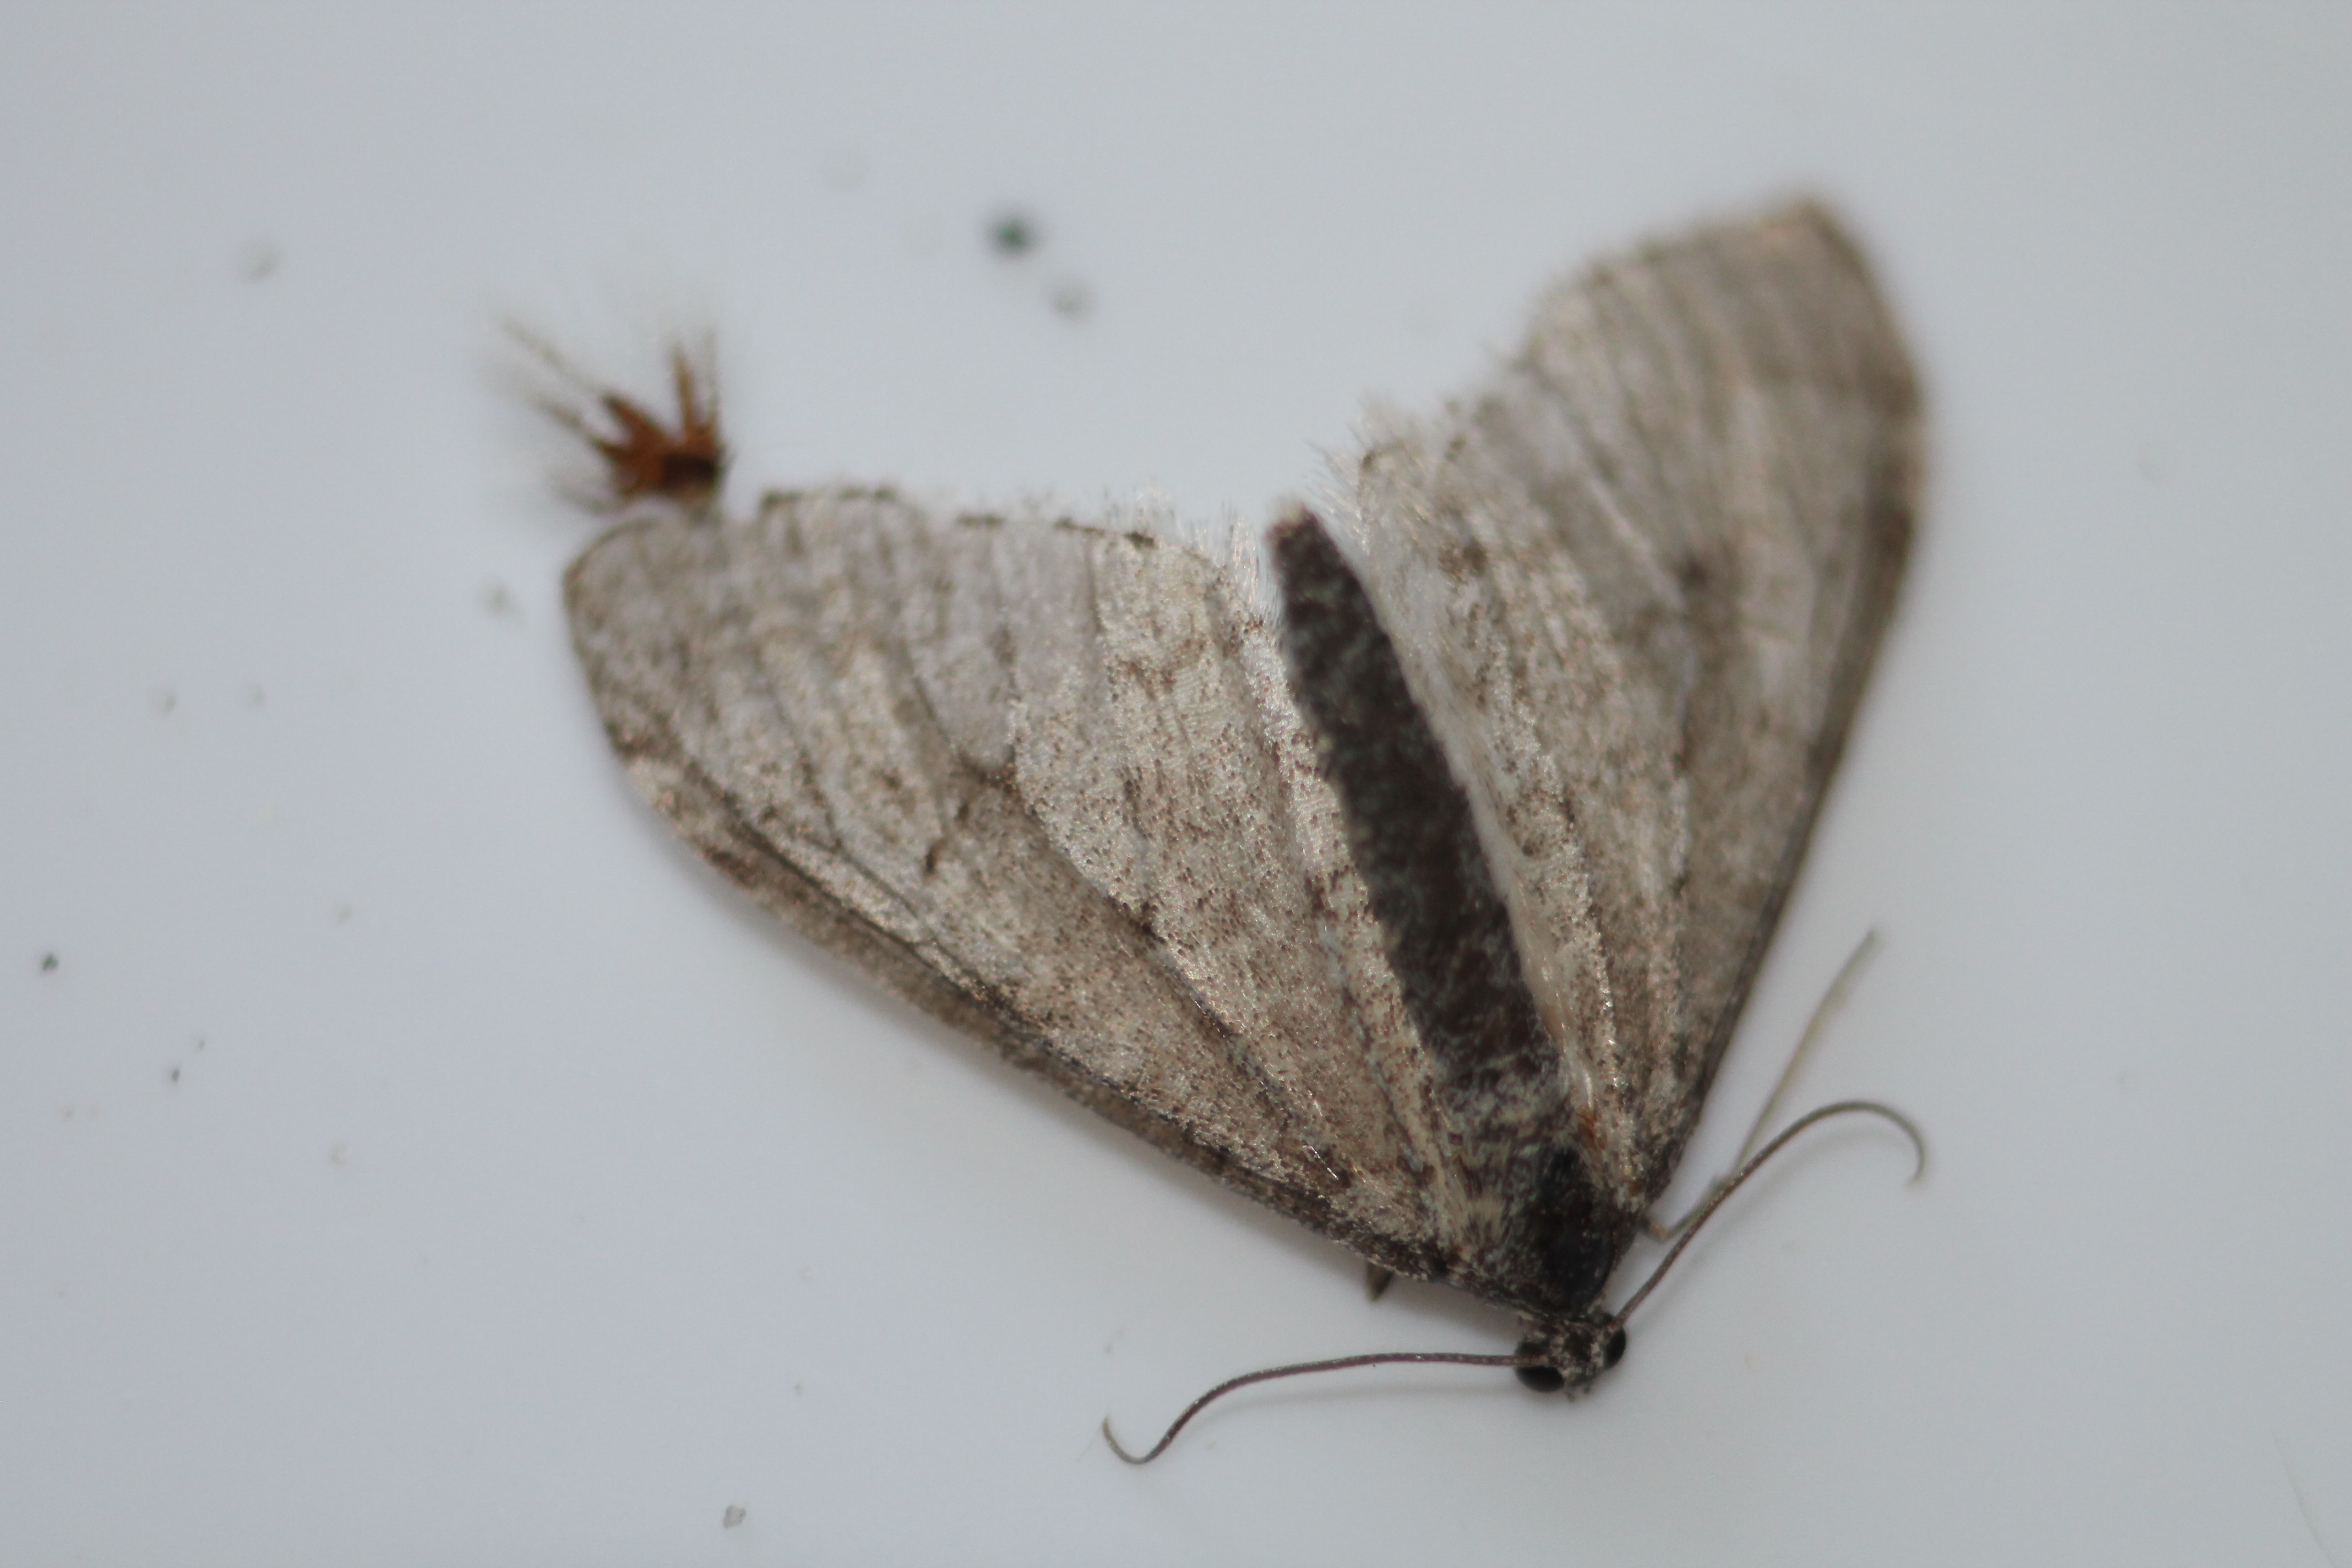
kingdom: Animalia
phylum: Arthropoda
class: Insecta
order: Lepidoptera
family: Geometridae
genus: Trichopteryx
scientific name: Trichopteryx carpinata
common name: Early tooth-striped
